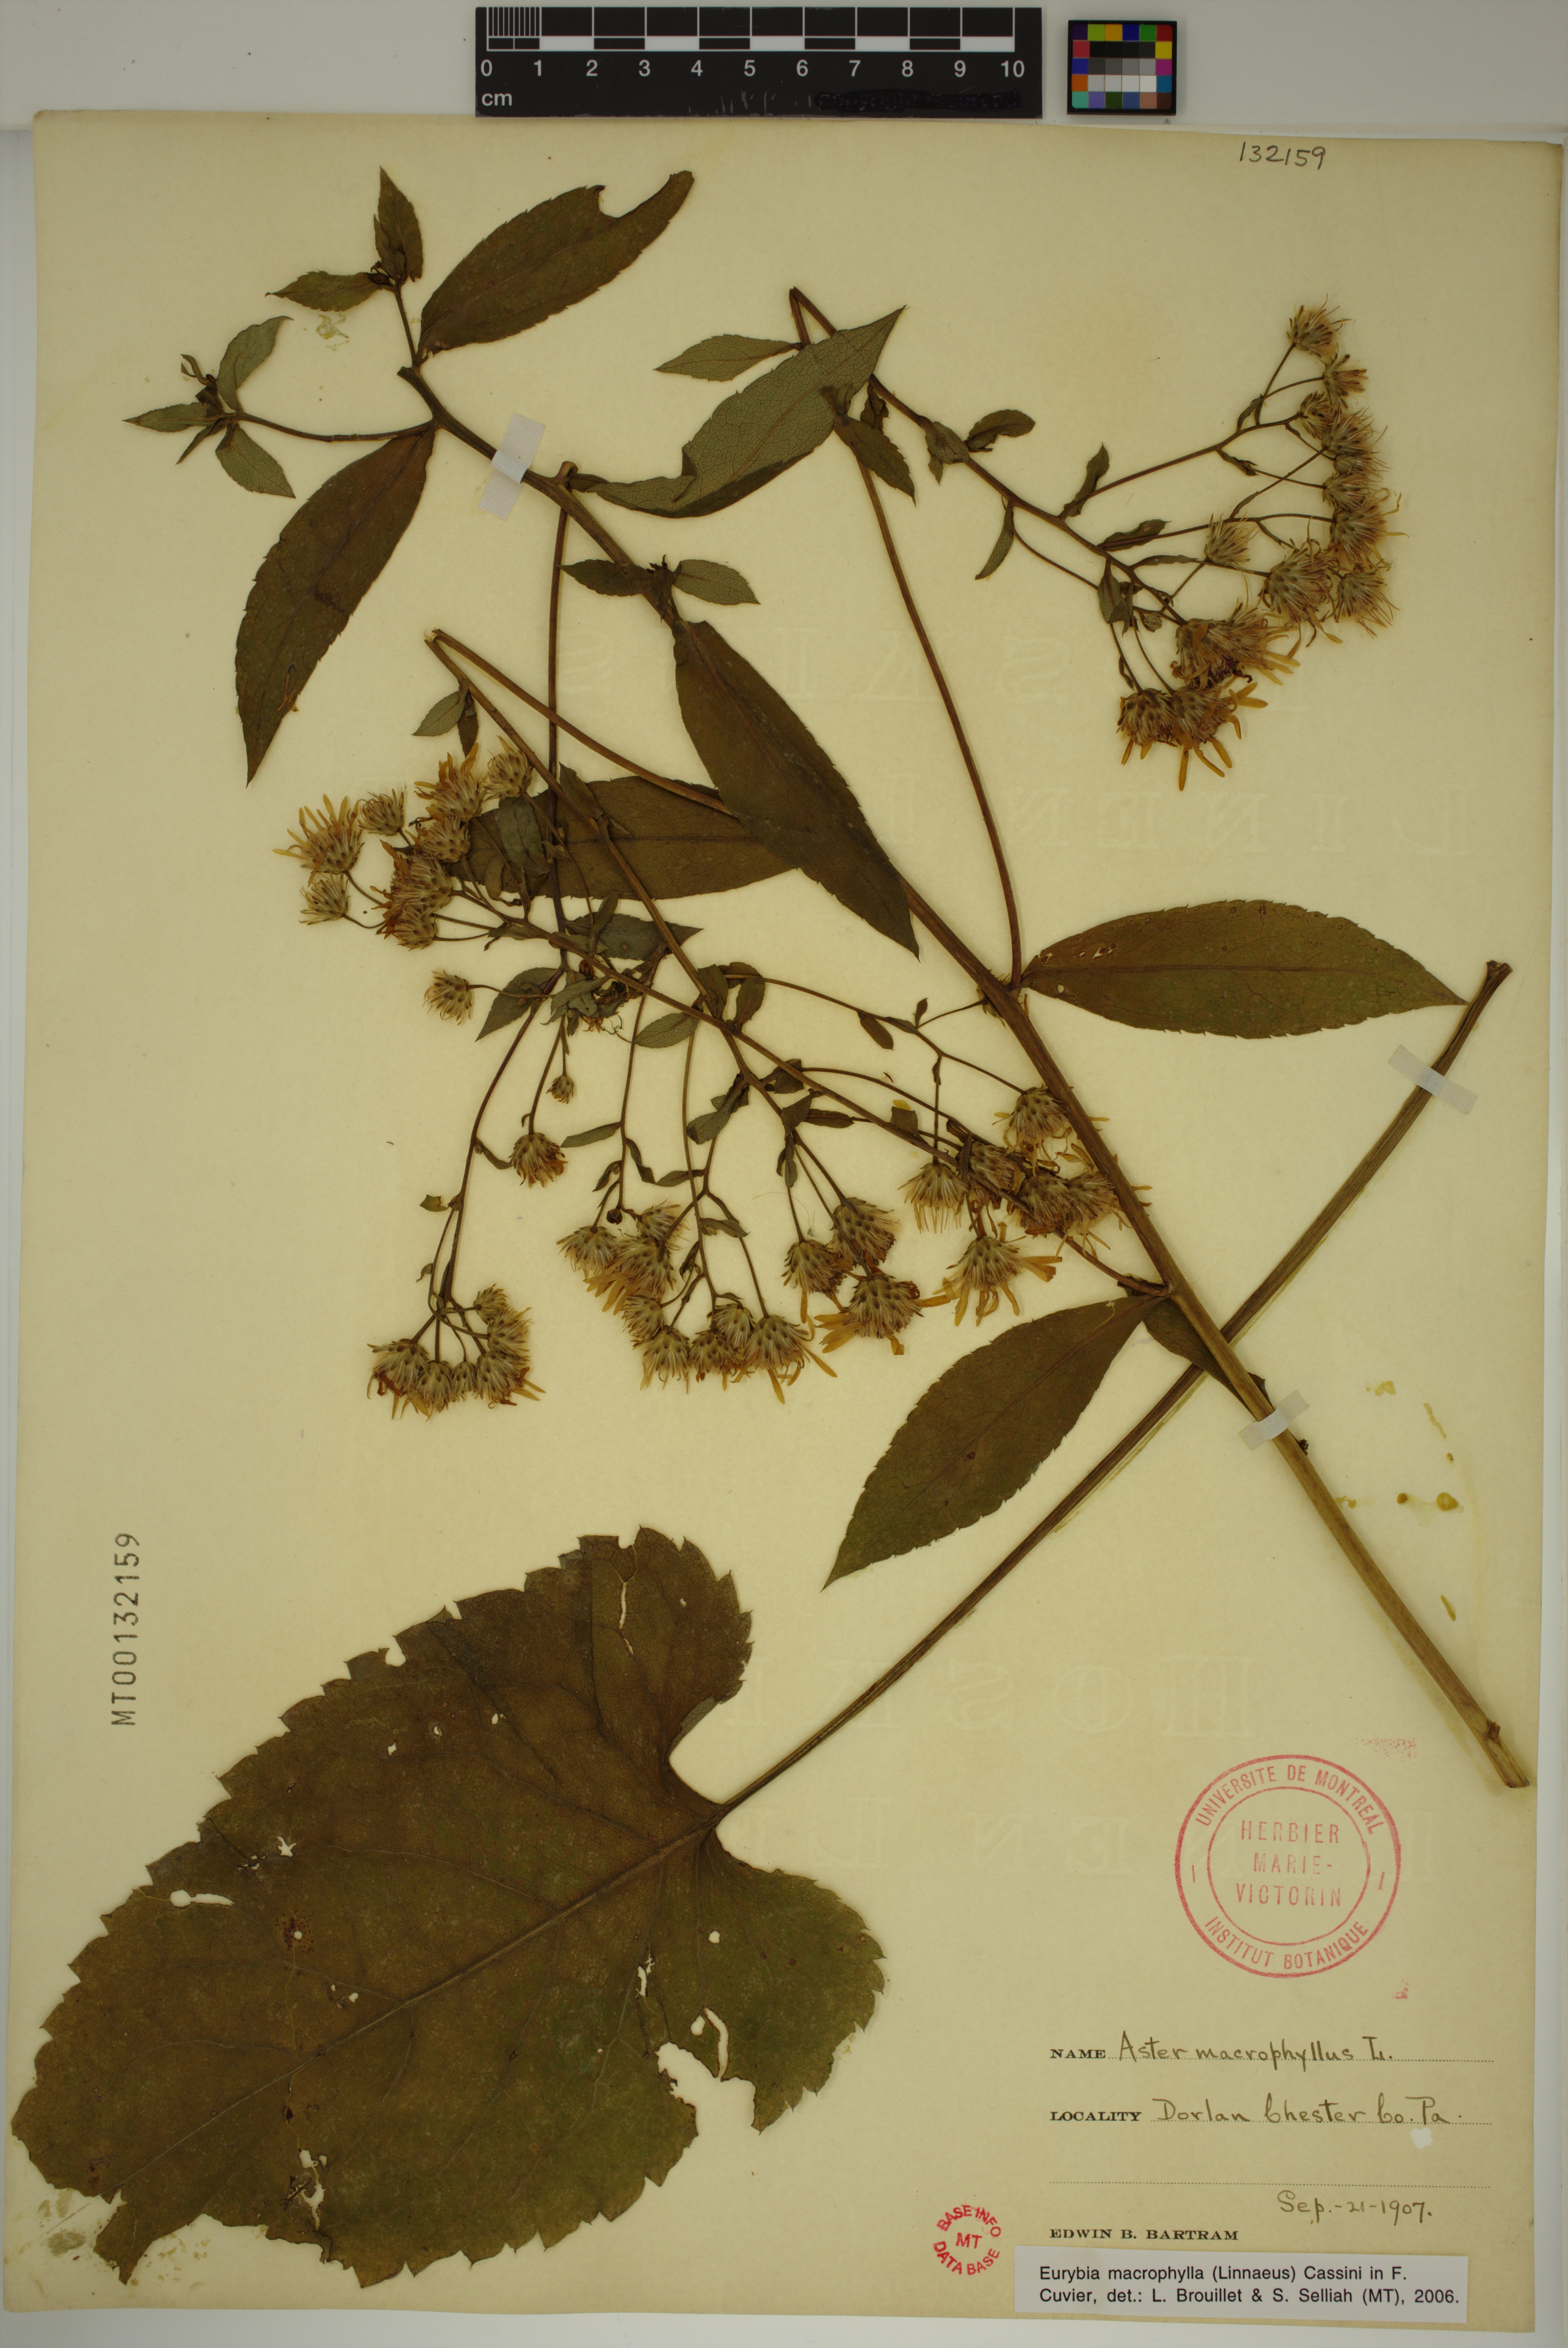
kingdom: Plantae
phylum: Tracheophyta
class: Magnoliopsida
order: Asterales
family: Asteraceae
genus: Eurybia
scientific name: Eurybia macrophylla
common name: Big-leaved aster
